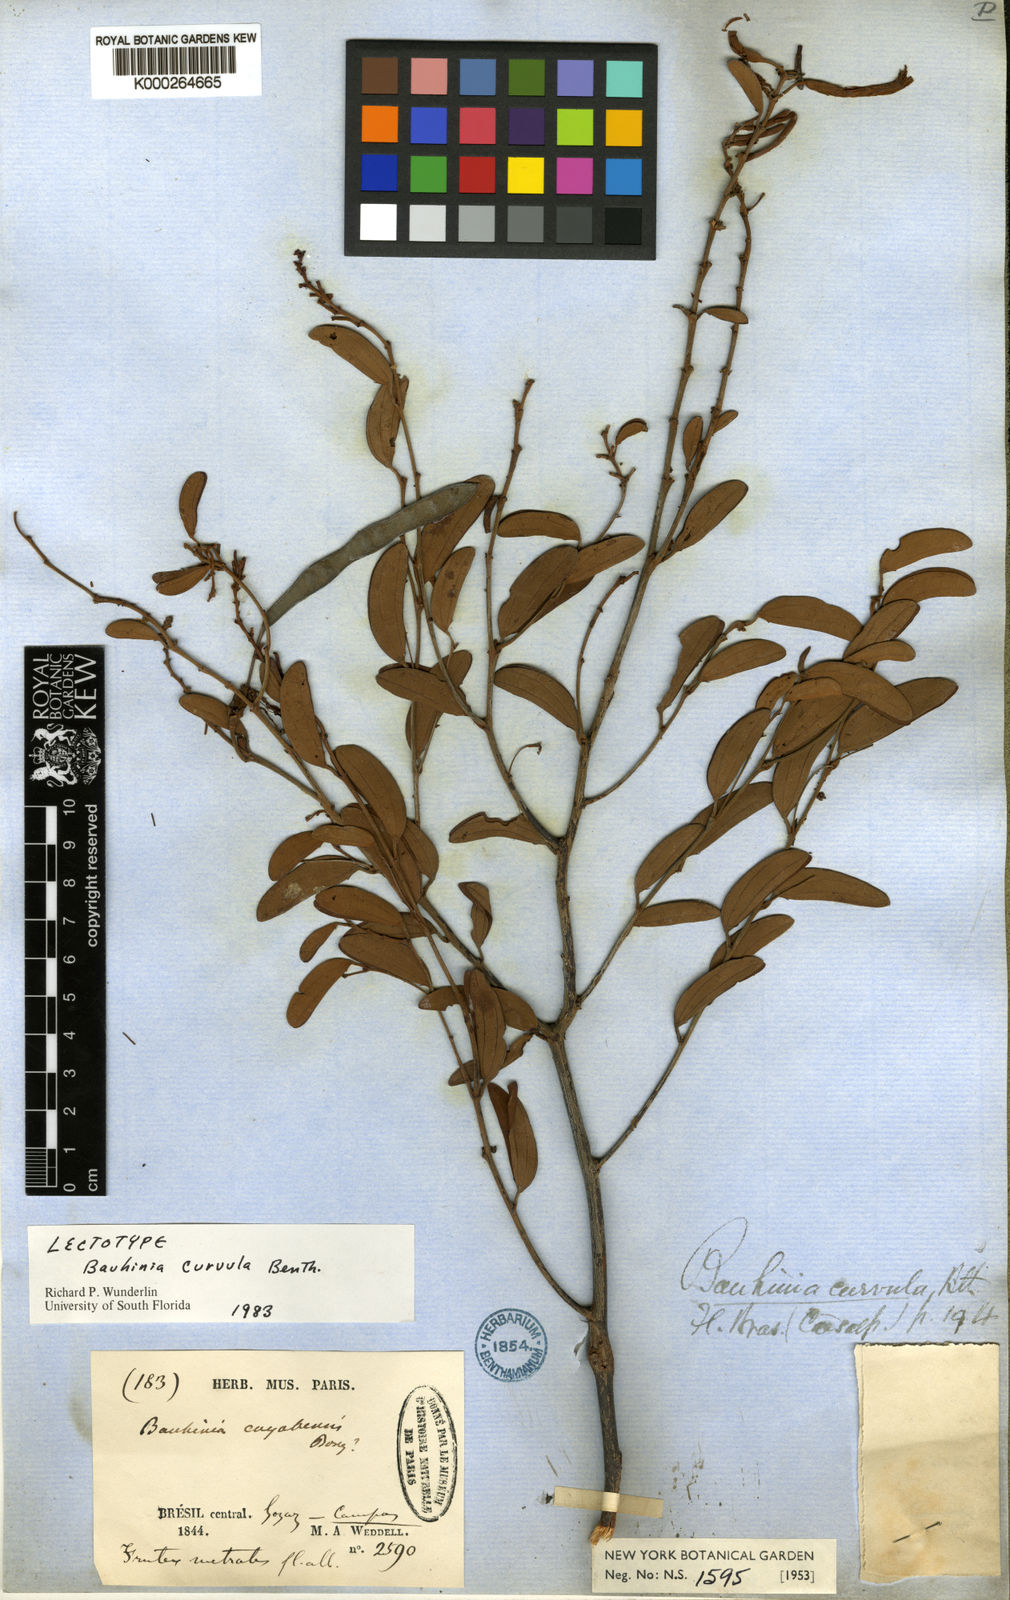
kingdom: Plantae
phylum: Tracheophyta
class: Magnoliopsida
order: Fabales
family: Fabaceae
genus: Bauhinia
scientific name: Bauhinia curvula
